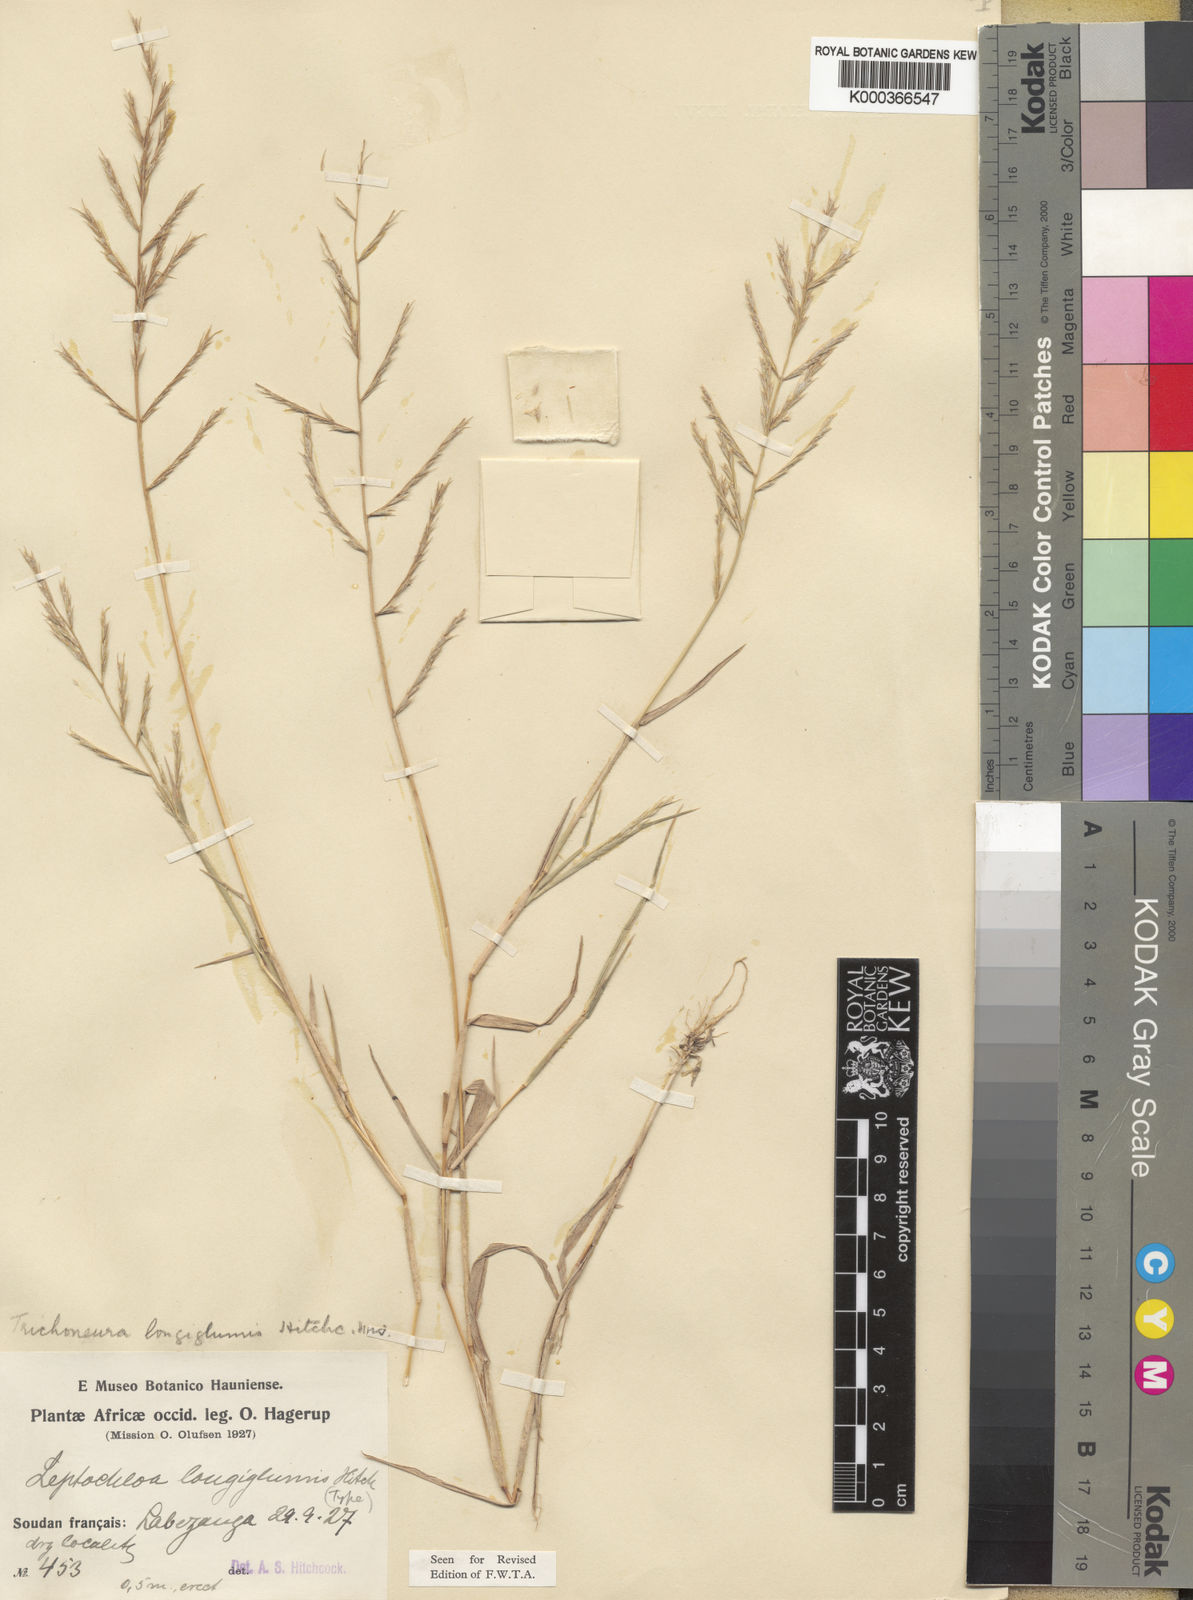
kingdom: Plantae
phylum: Tracheophyta
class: Liliopsida
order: Poales
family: Poaceae
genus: Trichoneura
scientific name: Trichoneura mollis
